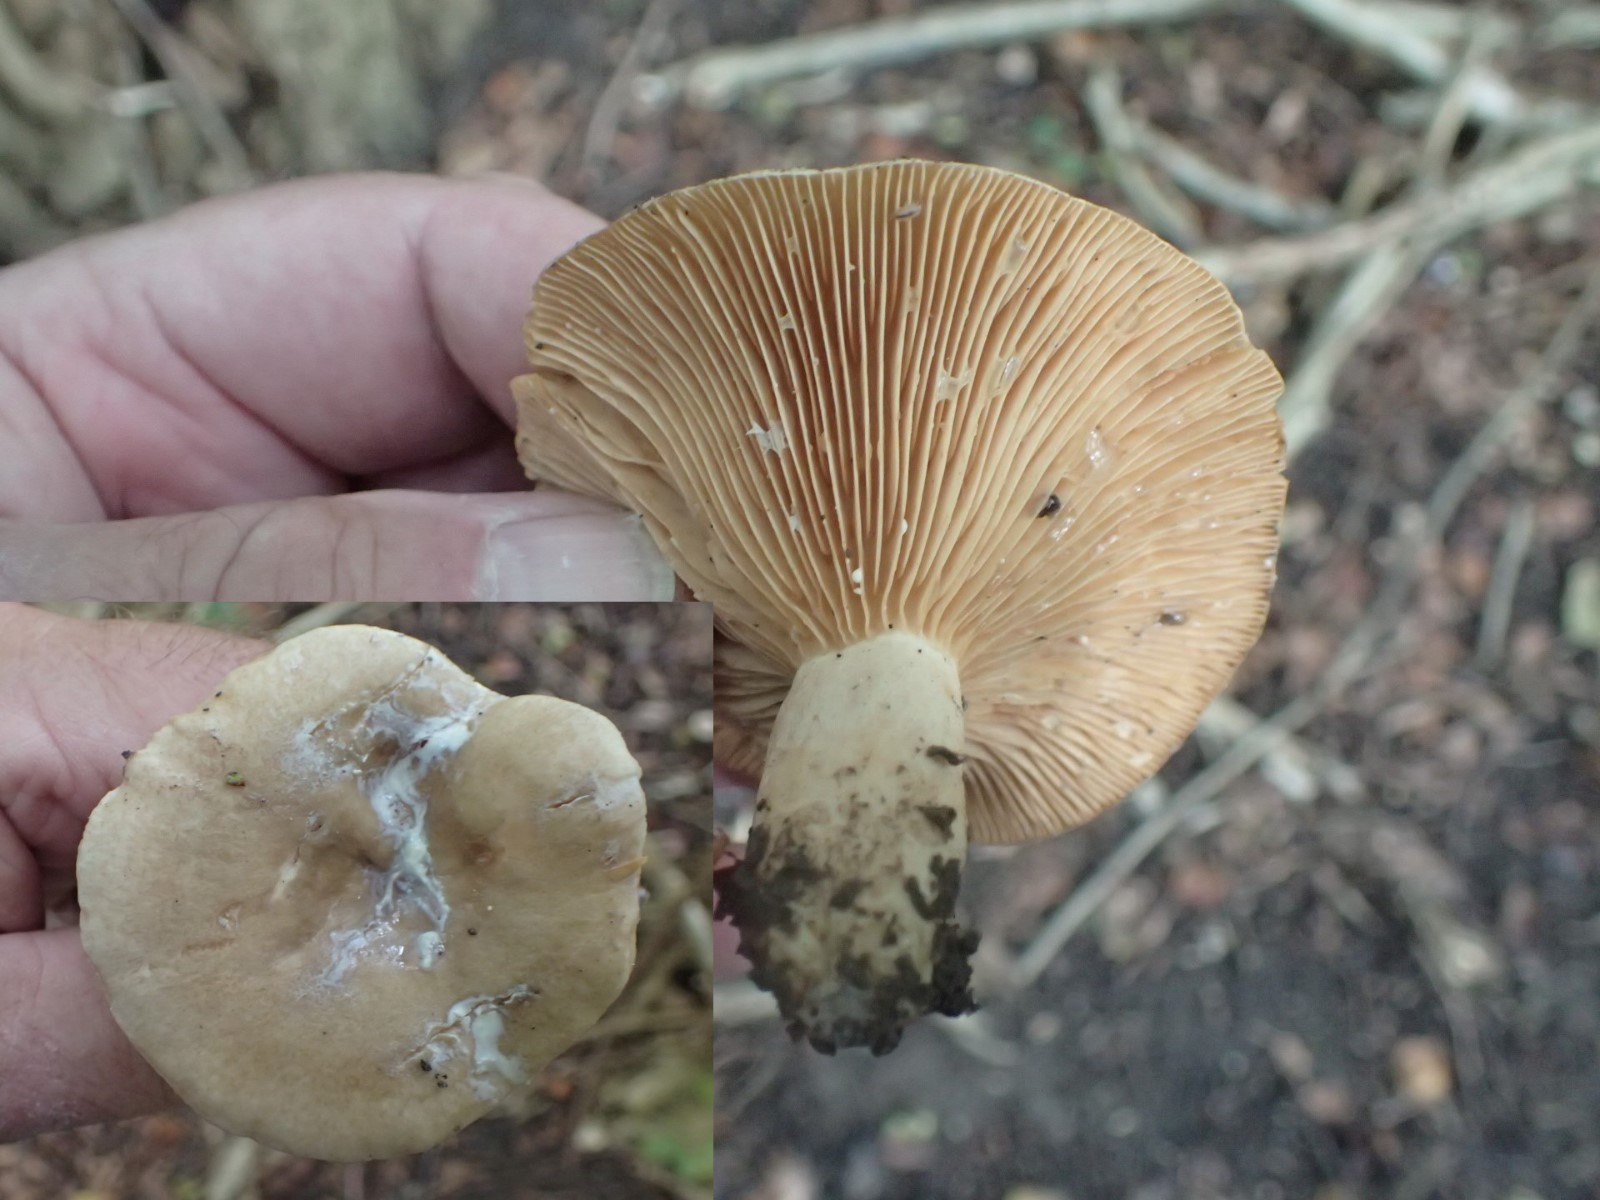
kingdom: Fungi
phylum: Basidiomycota
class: Agaricomycetes
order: Russulales
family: Russulaceae
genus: Lactarius
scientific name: Lactarius pyrogalus
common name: hassel-mælkehat
